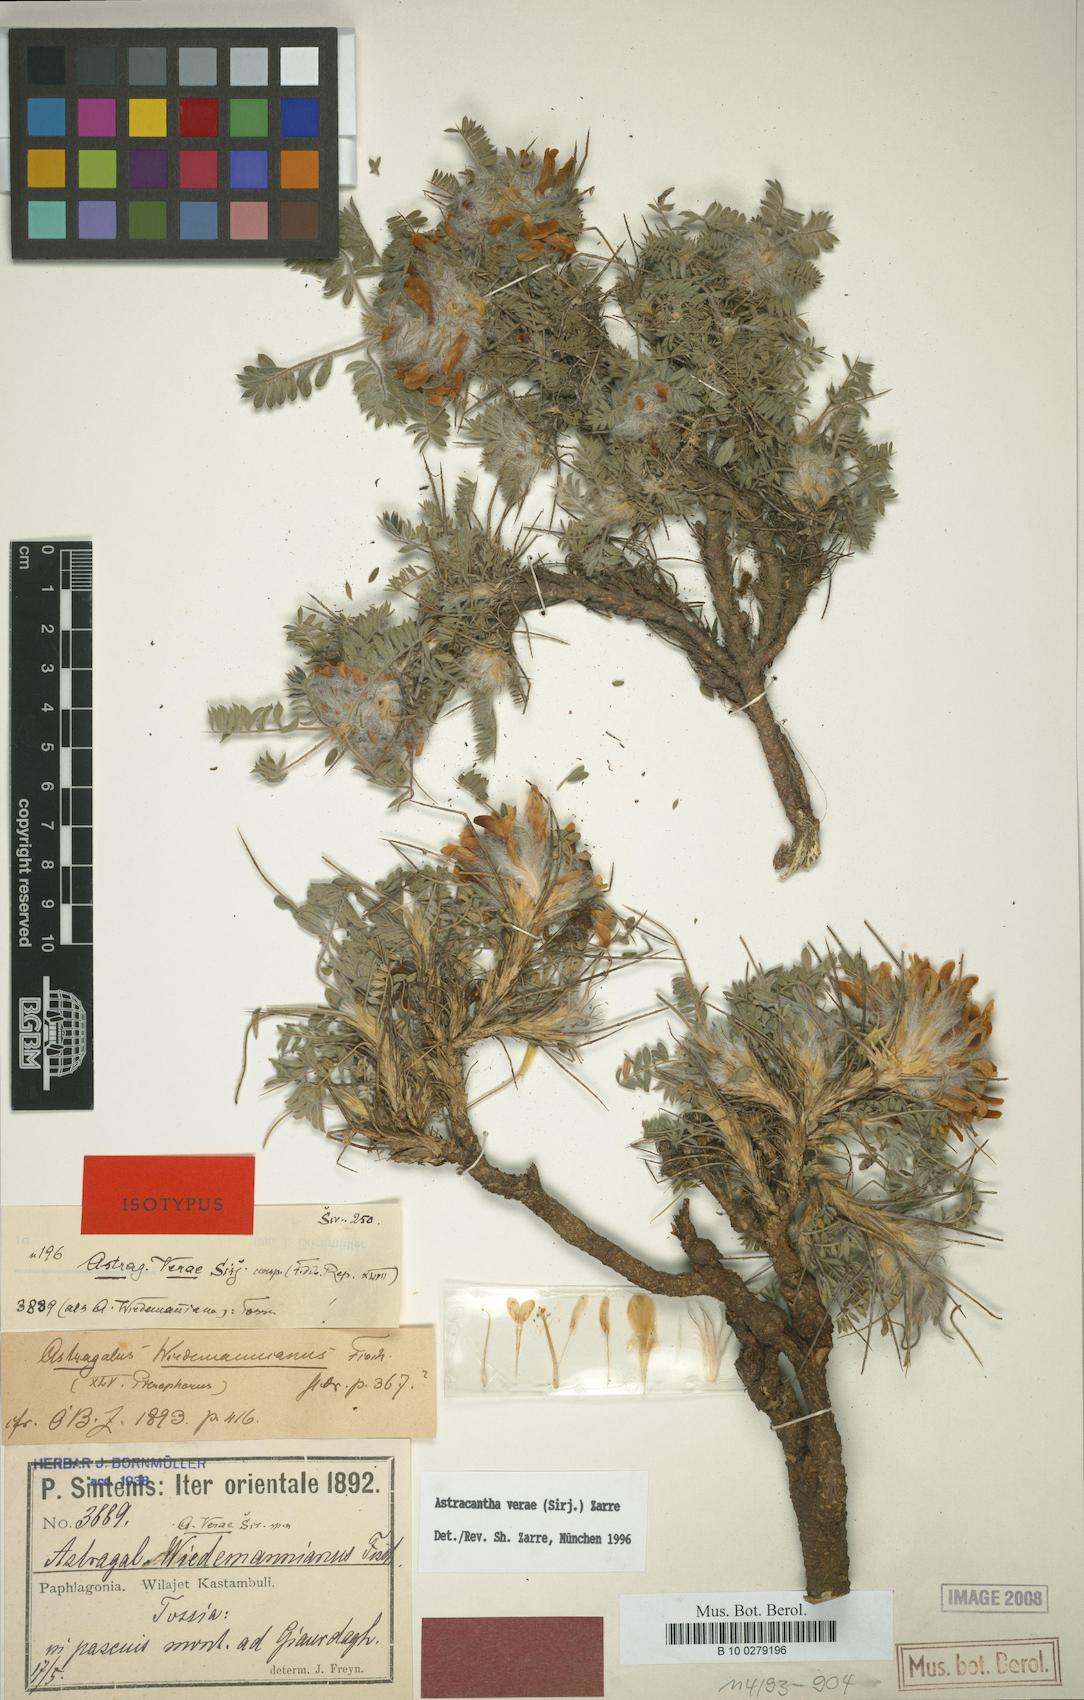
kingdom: Chromista
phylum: Cercozoa
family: Astracanthidae
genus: Astracantha
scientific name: Astracantha
